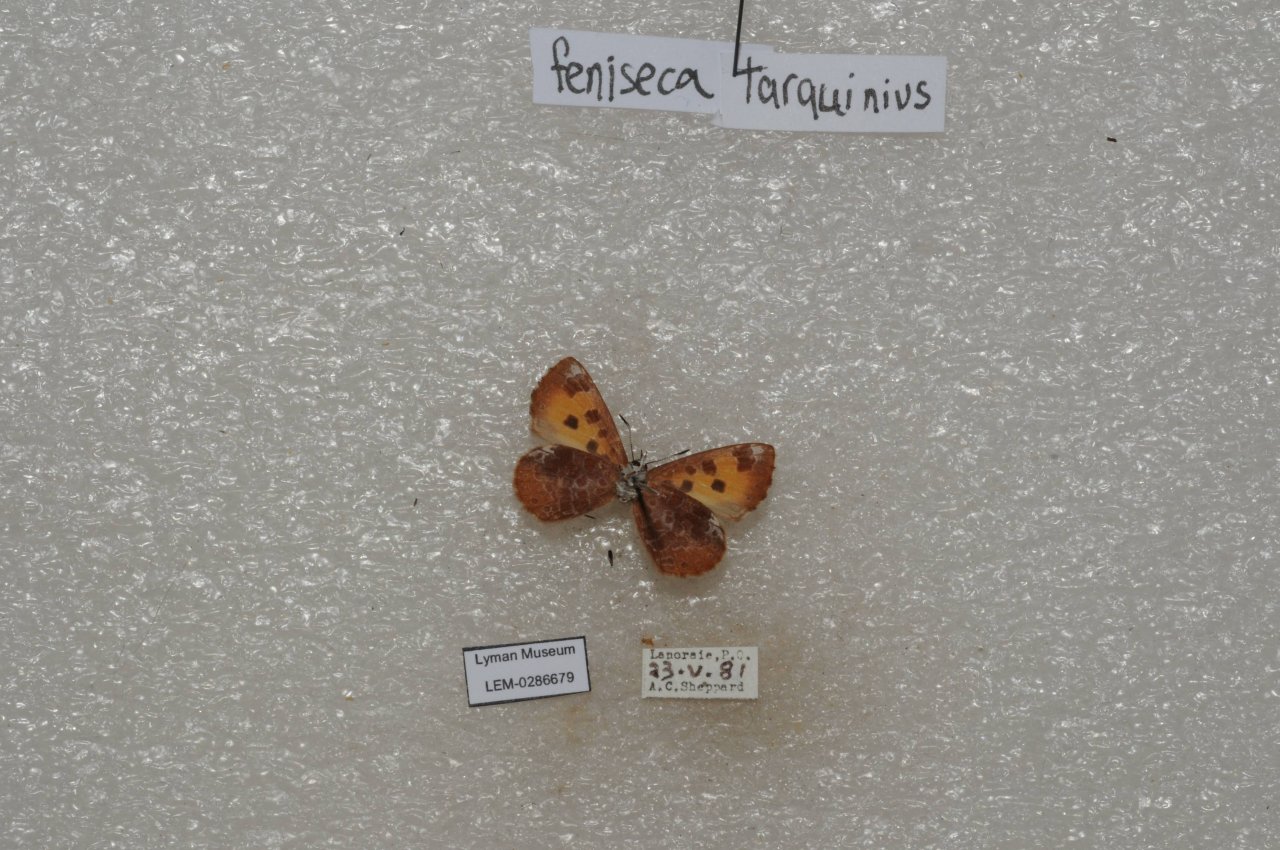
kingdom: Animalia
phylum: Arthropoda
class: Insecta
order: Lepidoptera
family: Lycaenidae
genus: Feniseca
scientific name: Feniseca tarquinius
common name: Harvester
